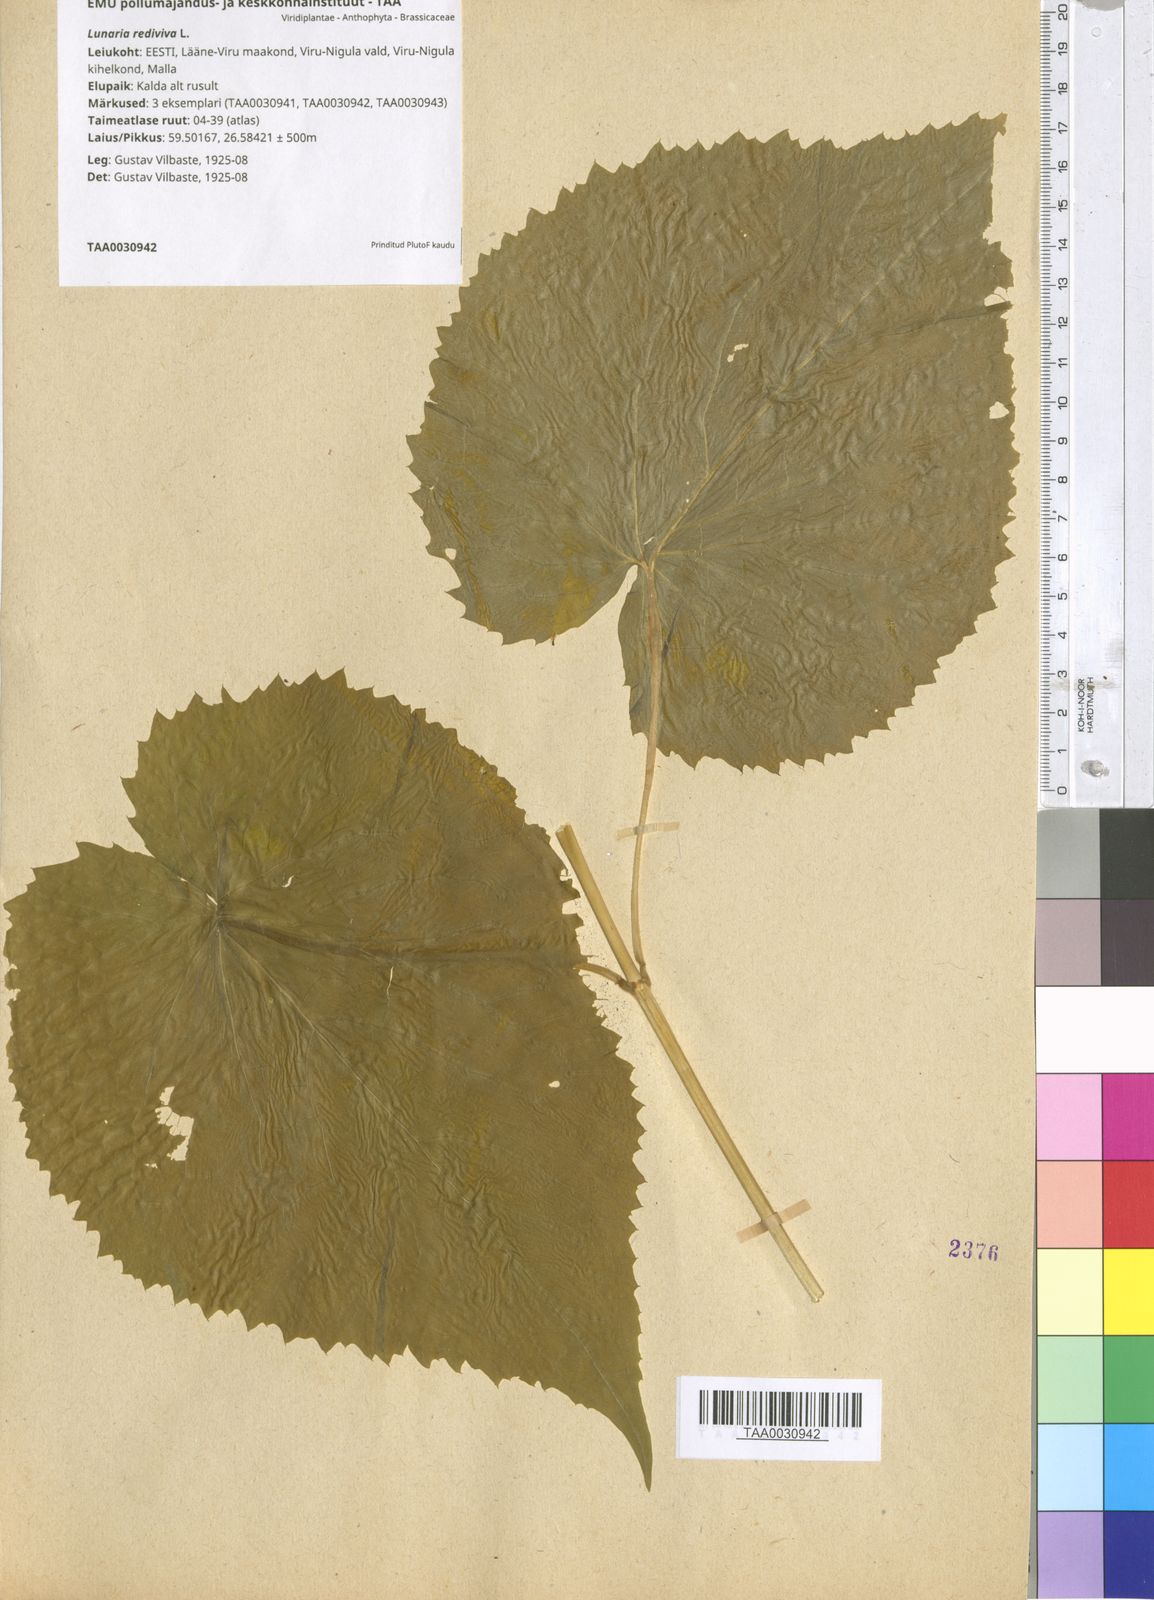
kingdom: Plantae
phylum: Tracheophyta
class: Magnoliopsida
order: Brassicales
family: Brassicaceae
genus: Lunaria
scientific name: Lunaria rediviva
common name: Perennial honesty
